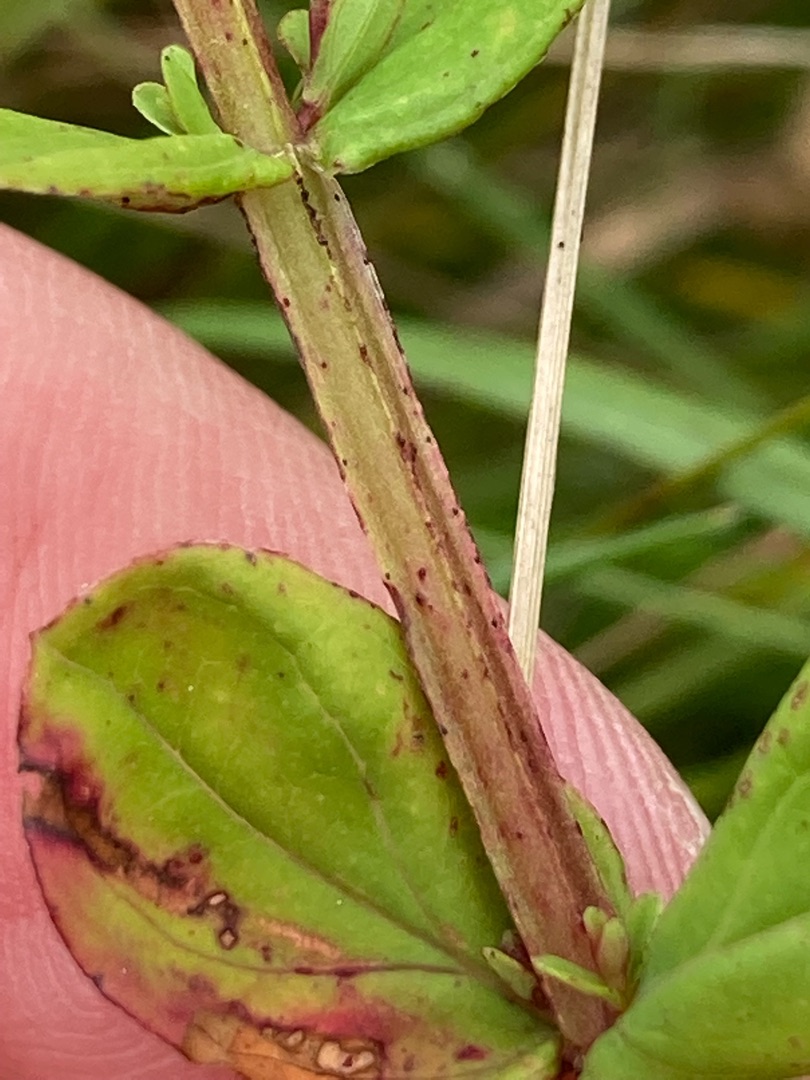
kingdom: Plantae
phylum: Tracheophyta
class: Magnoliopsida
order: Malpighiales
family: Hypericaceae
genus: Hypericum
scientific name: Hypericum tetrapterum
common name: Vinget perikon
